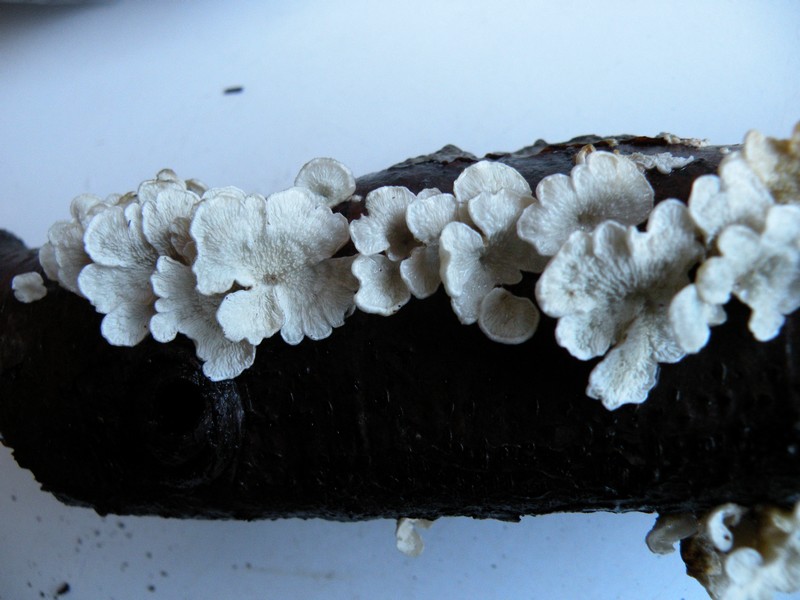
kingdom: Fungi
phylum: Basidiomycota
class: Agaricomycetes
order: Amylocorticiales
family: Amylocorticiaceae
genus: Plicaturopsis
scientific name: Plicaturopsis crispa
